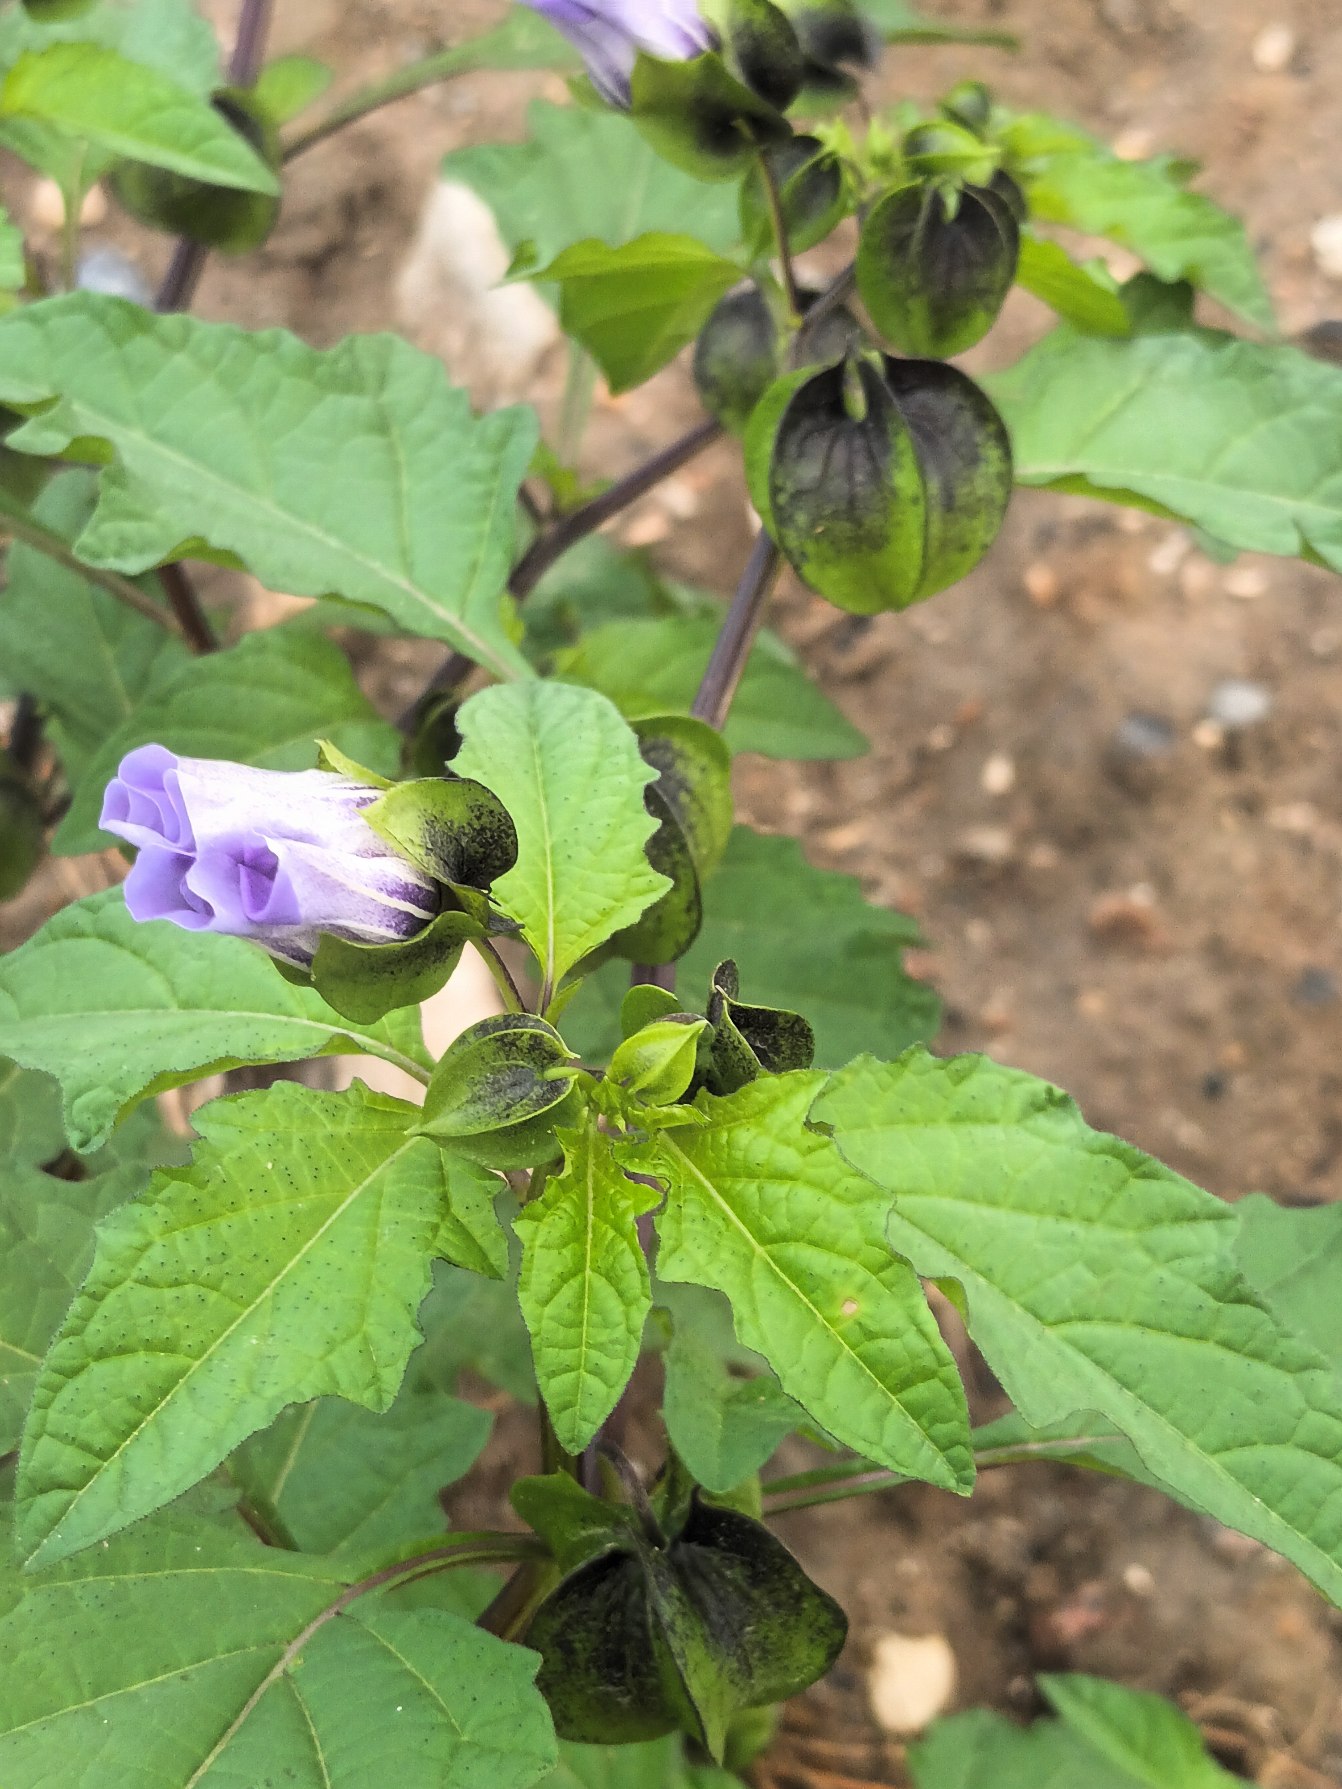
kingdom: Plantae
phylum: Tracheophyta
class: Magnoliopsida
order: Solanales
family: Solanaceae
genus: Nicandra
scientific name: Nicandra physalodes
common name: Kantbæger
